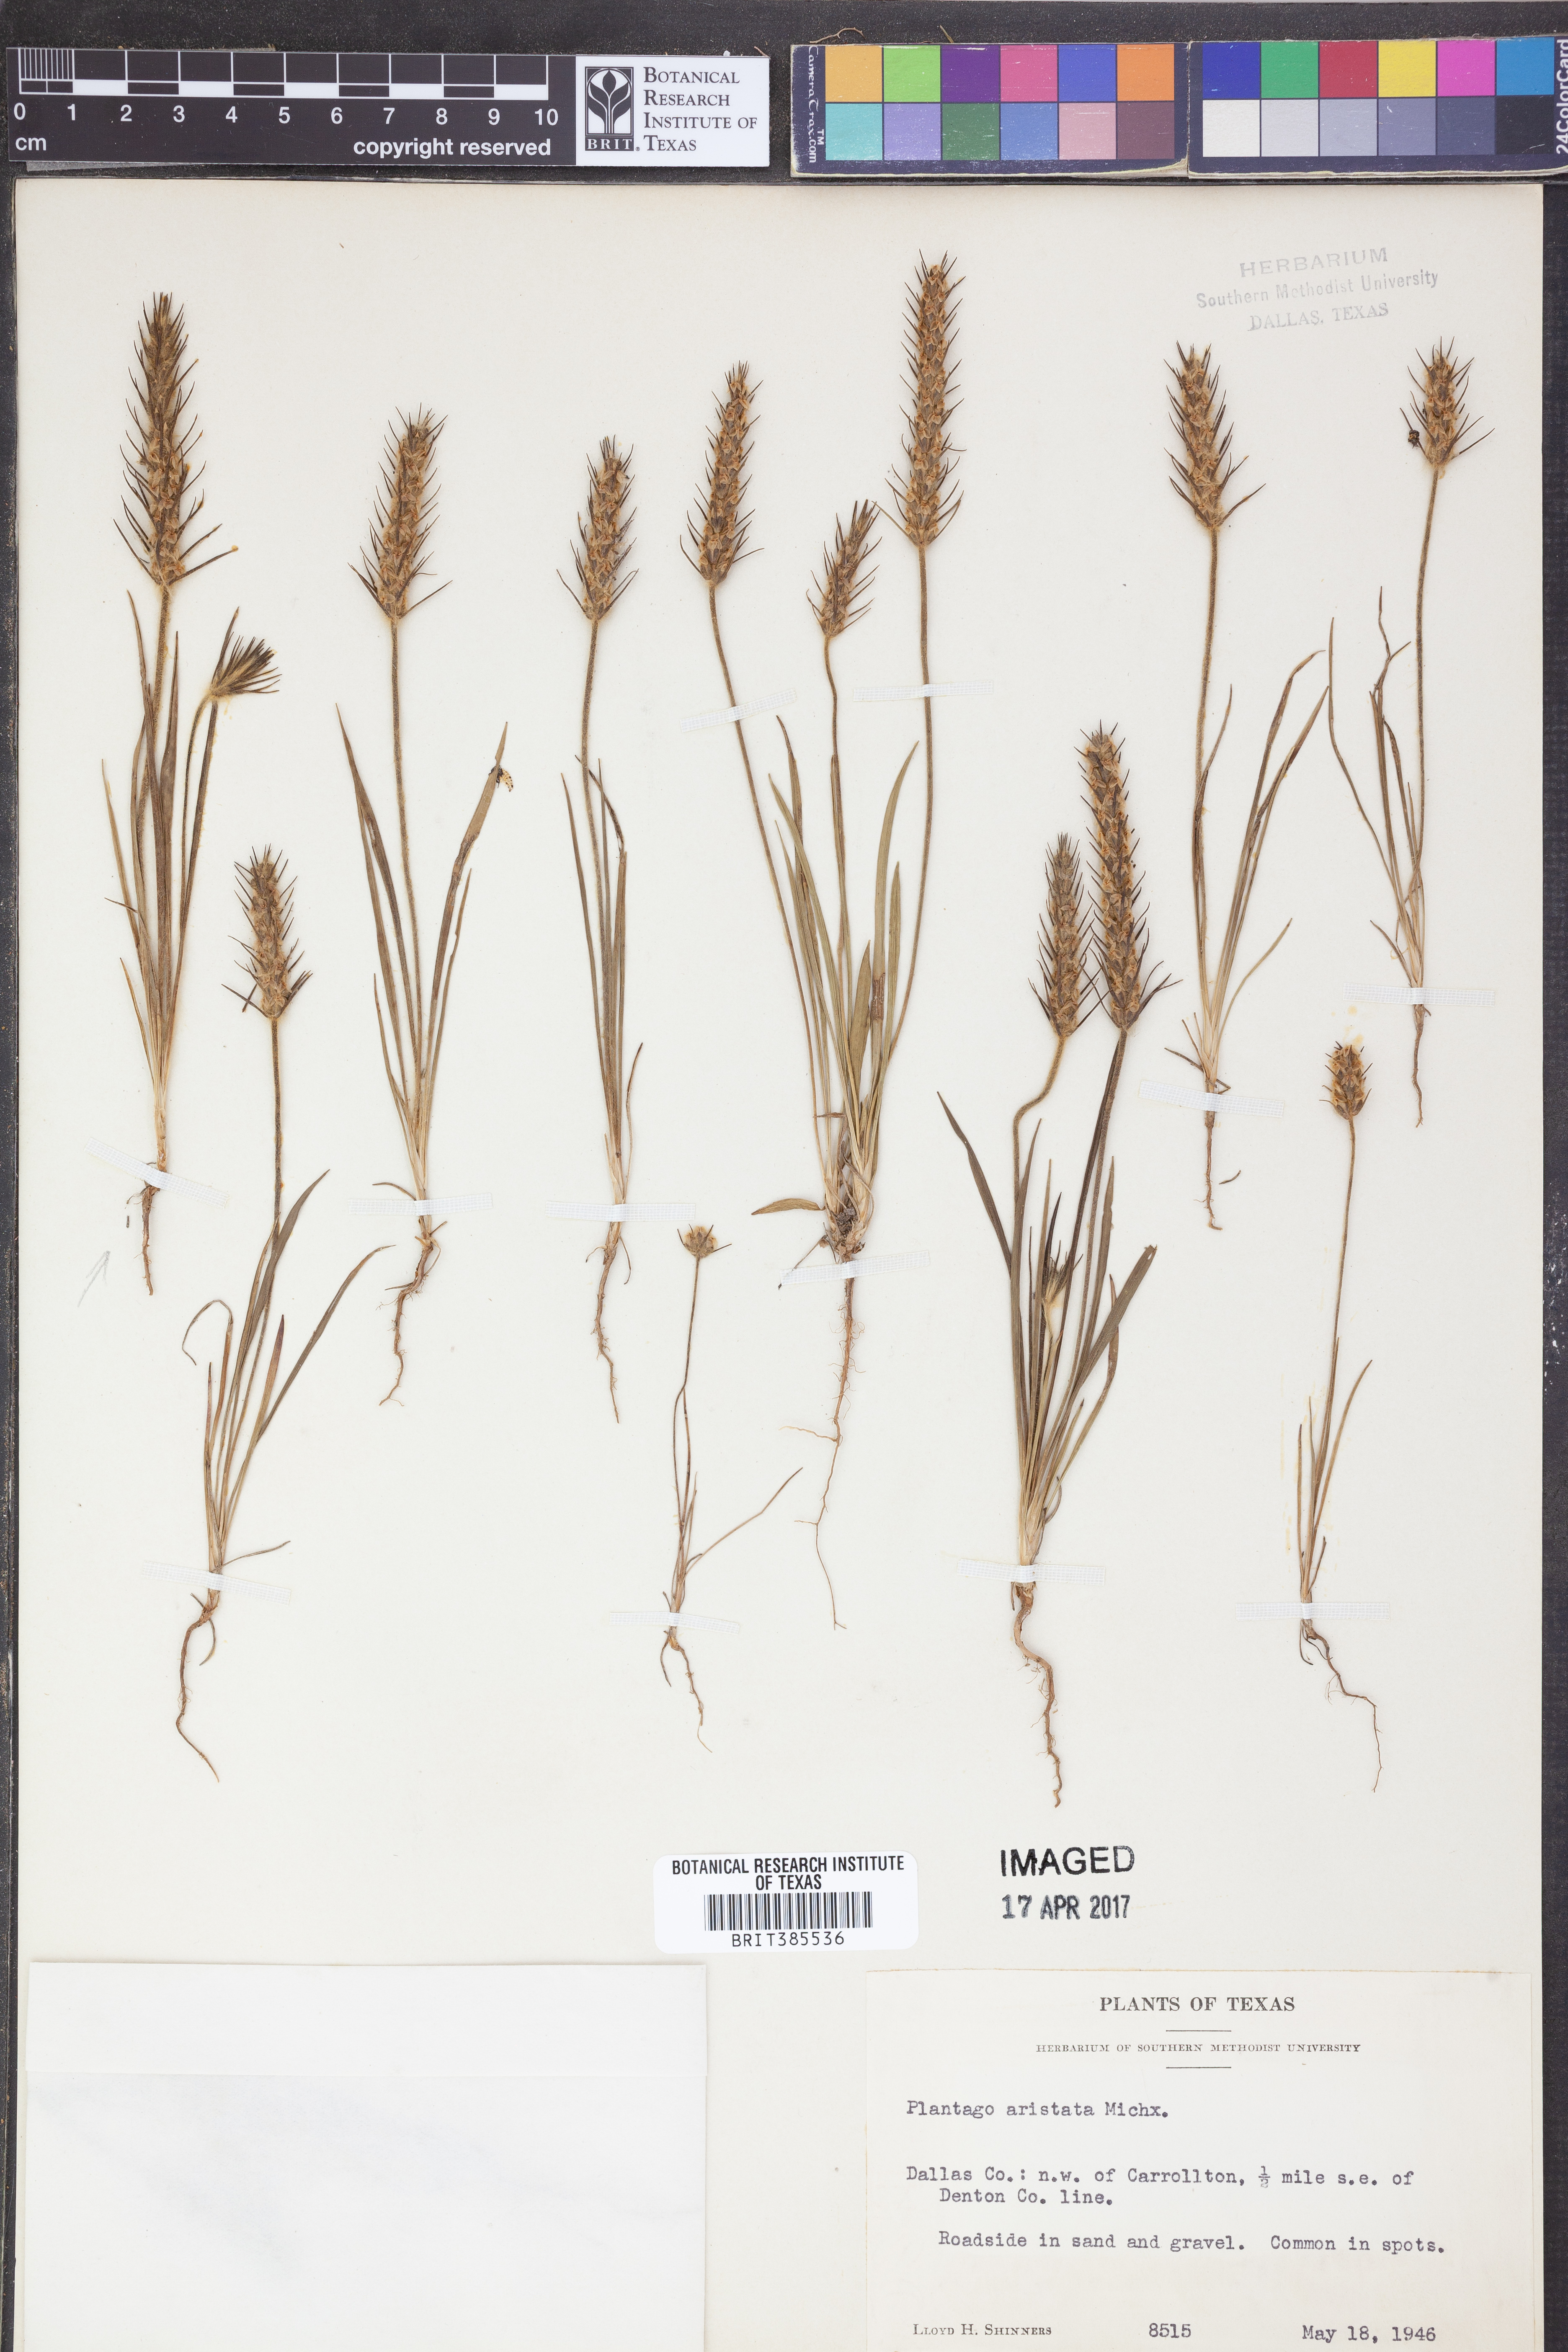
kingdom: Plantae
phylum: Tracheophyta
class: Magnoliopsida
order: Lamiales
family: Plantaginaceae
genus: Plantago
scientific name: Plantago aristata
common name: Bracted plantain
